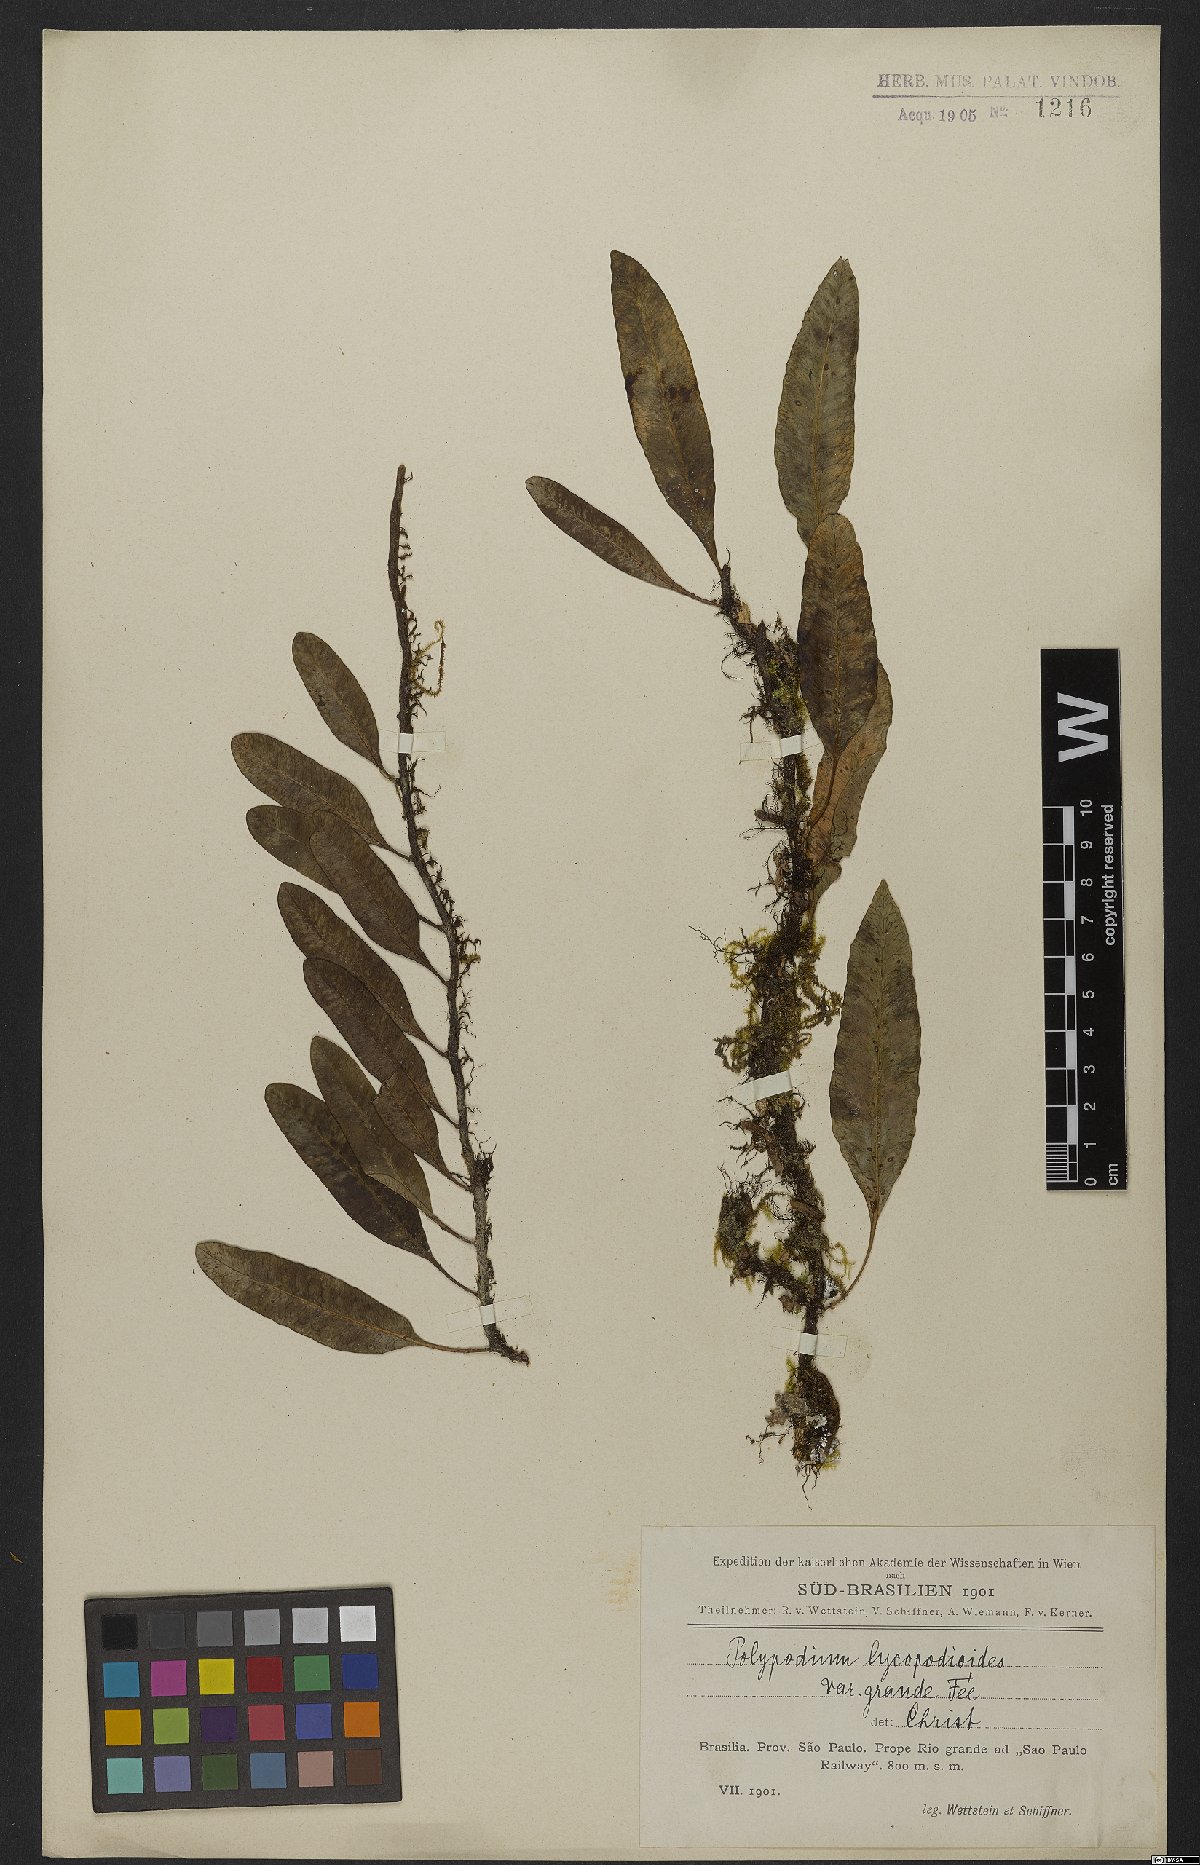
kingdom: Plantae
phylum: Tracheophyta
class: Polypodiopsida
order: Polypodiales
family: Polypodiaceae
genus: Microgramma
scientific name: Microgramma lycopodioides
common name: Bastard catclaw
